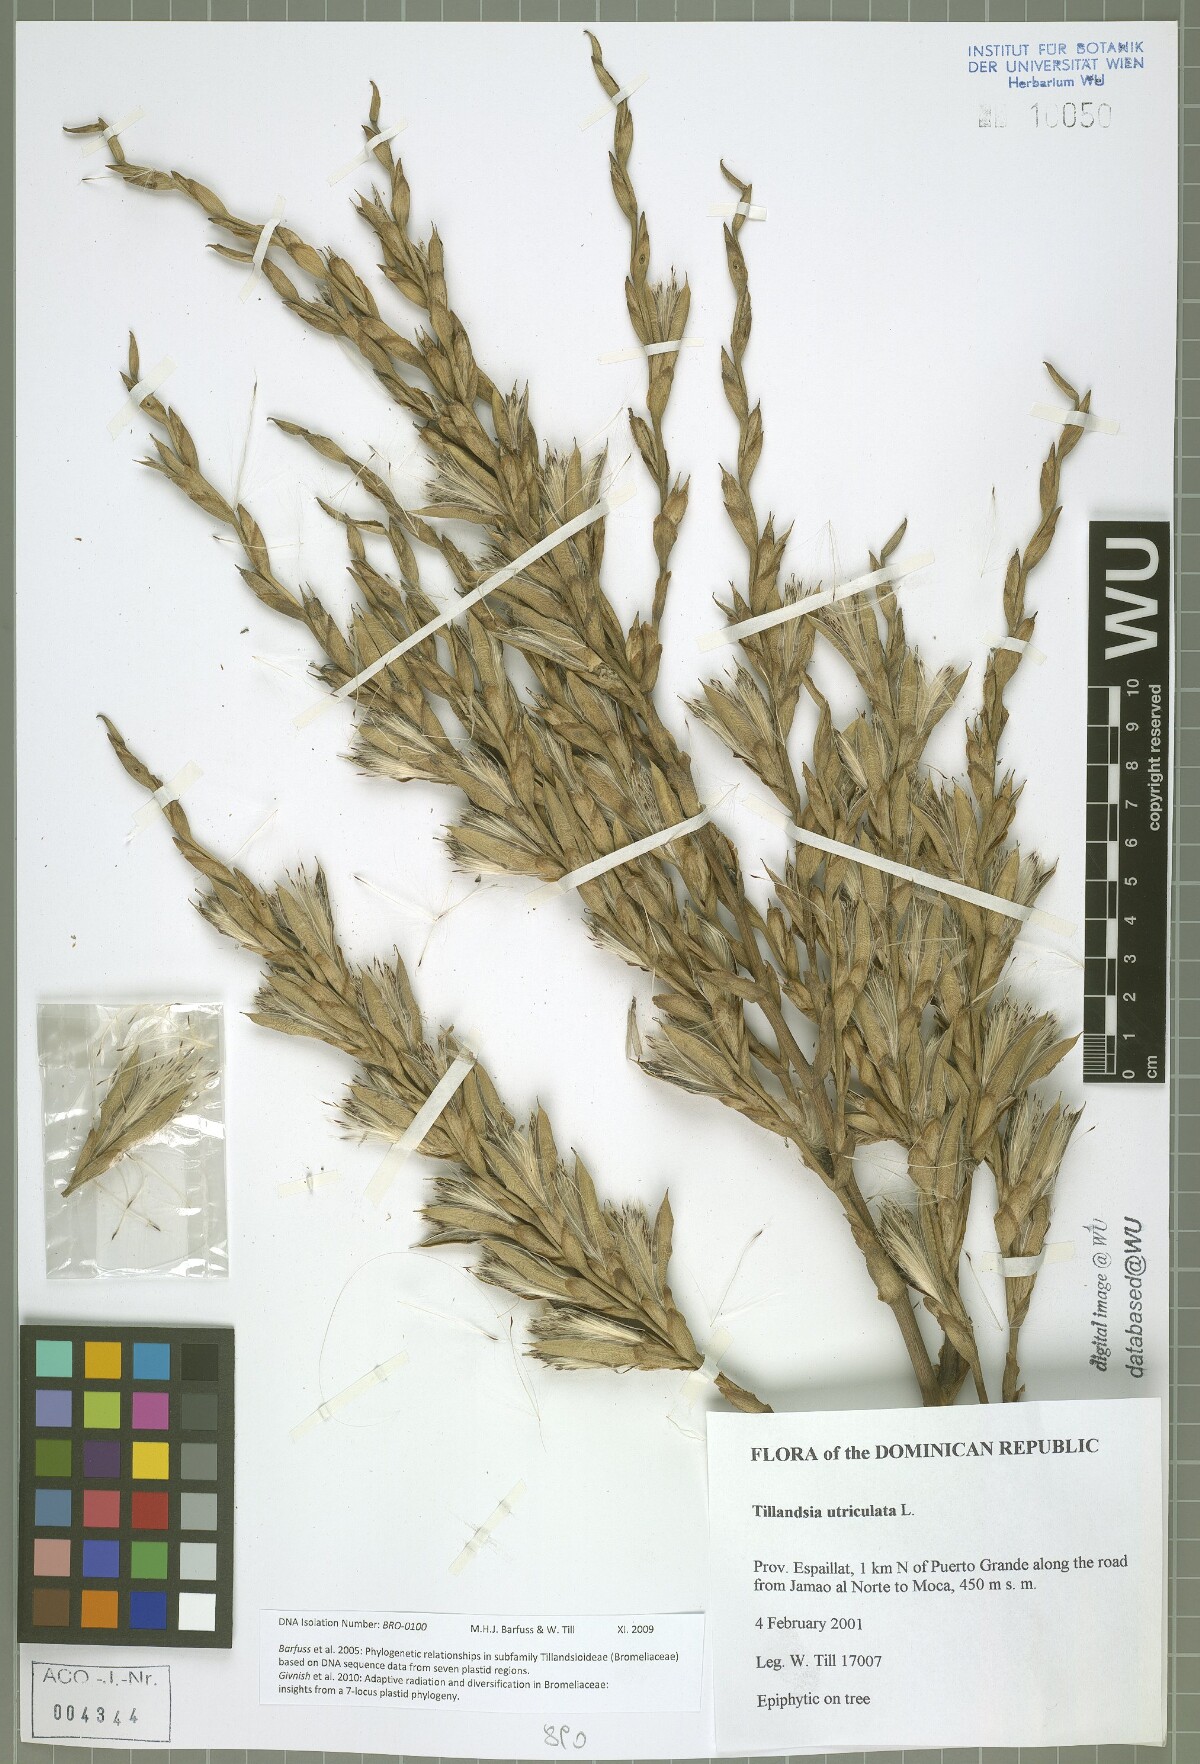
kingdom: Plantae
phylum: Tracheophyta
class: Liliopsida
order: Poales
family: Bromeliaceae
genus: Tillandsia
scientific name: Tillandsia utriculata
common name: Wild pine
